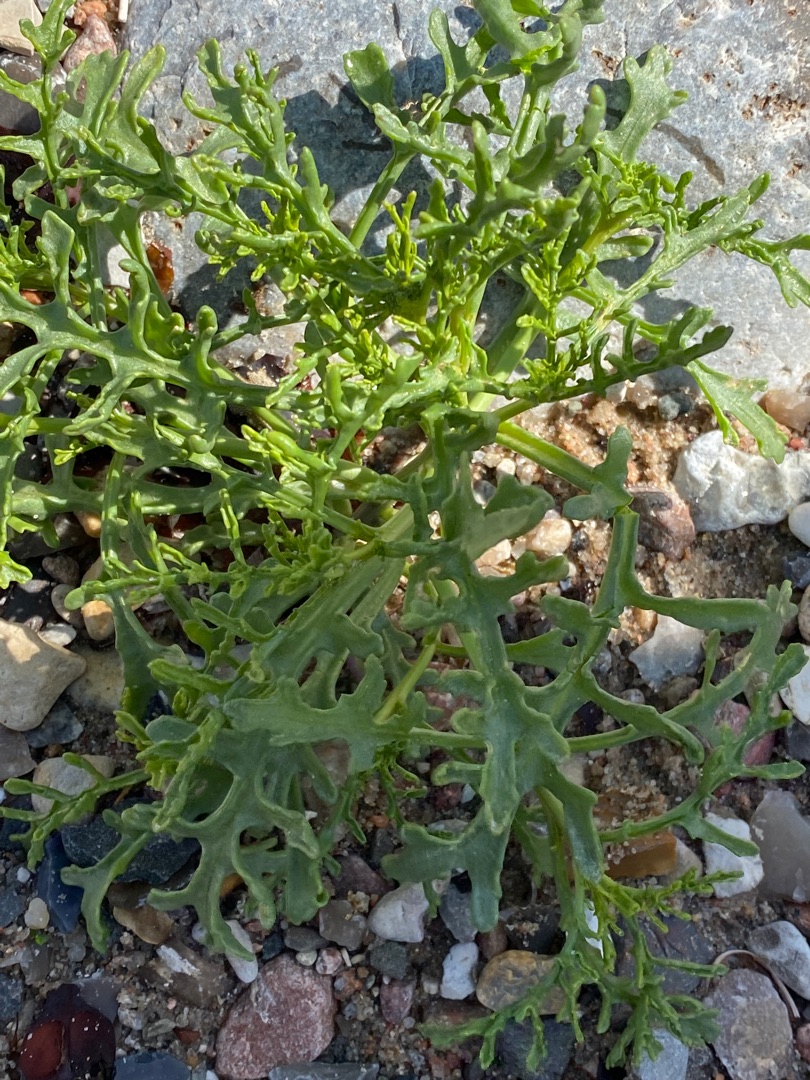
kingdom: Plantae
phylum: Tracheophyta
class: Magnoliopsida
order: Brassicales
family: Brassicaceae
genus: Cakile
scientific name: Cakile maritima
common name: Strandsennep
